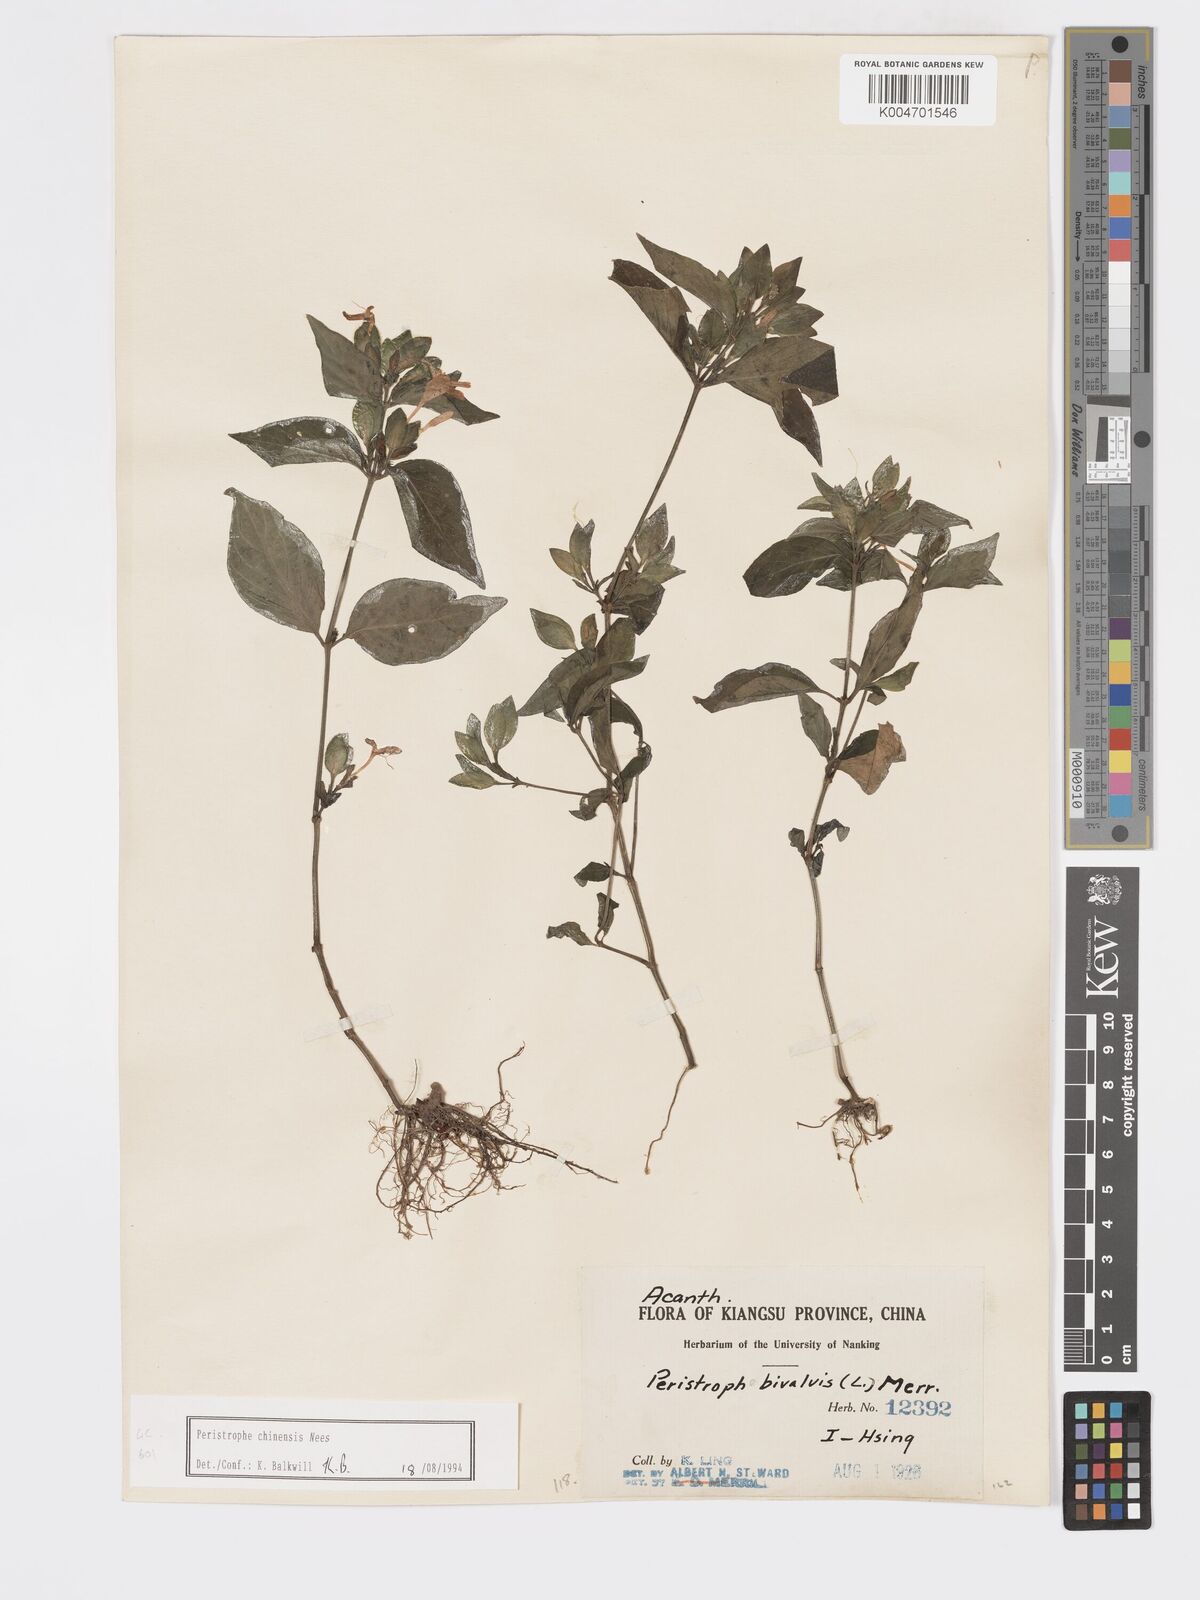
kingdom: Plantae
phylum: Tracheophyta
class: Magnoliopsida
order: Lamiales
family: Acanthaceae
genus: Dicliptera
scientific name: Dicliptera chinensis
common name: Chinese foldwing
